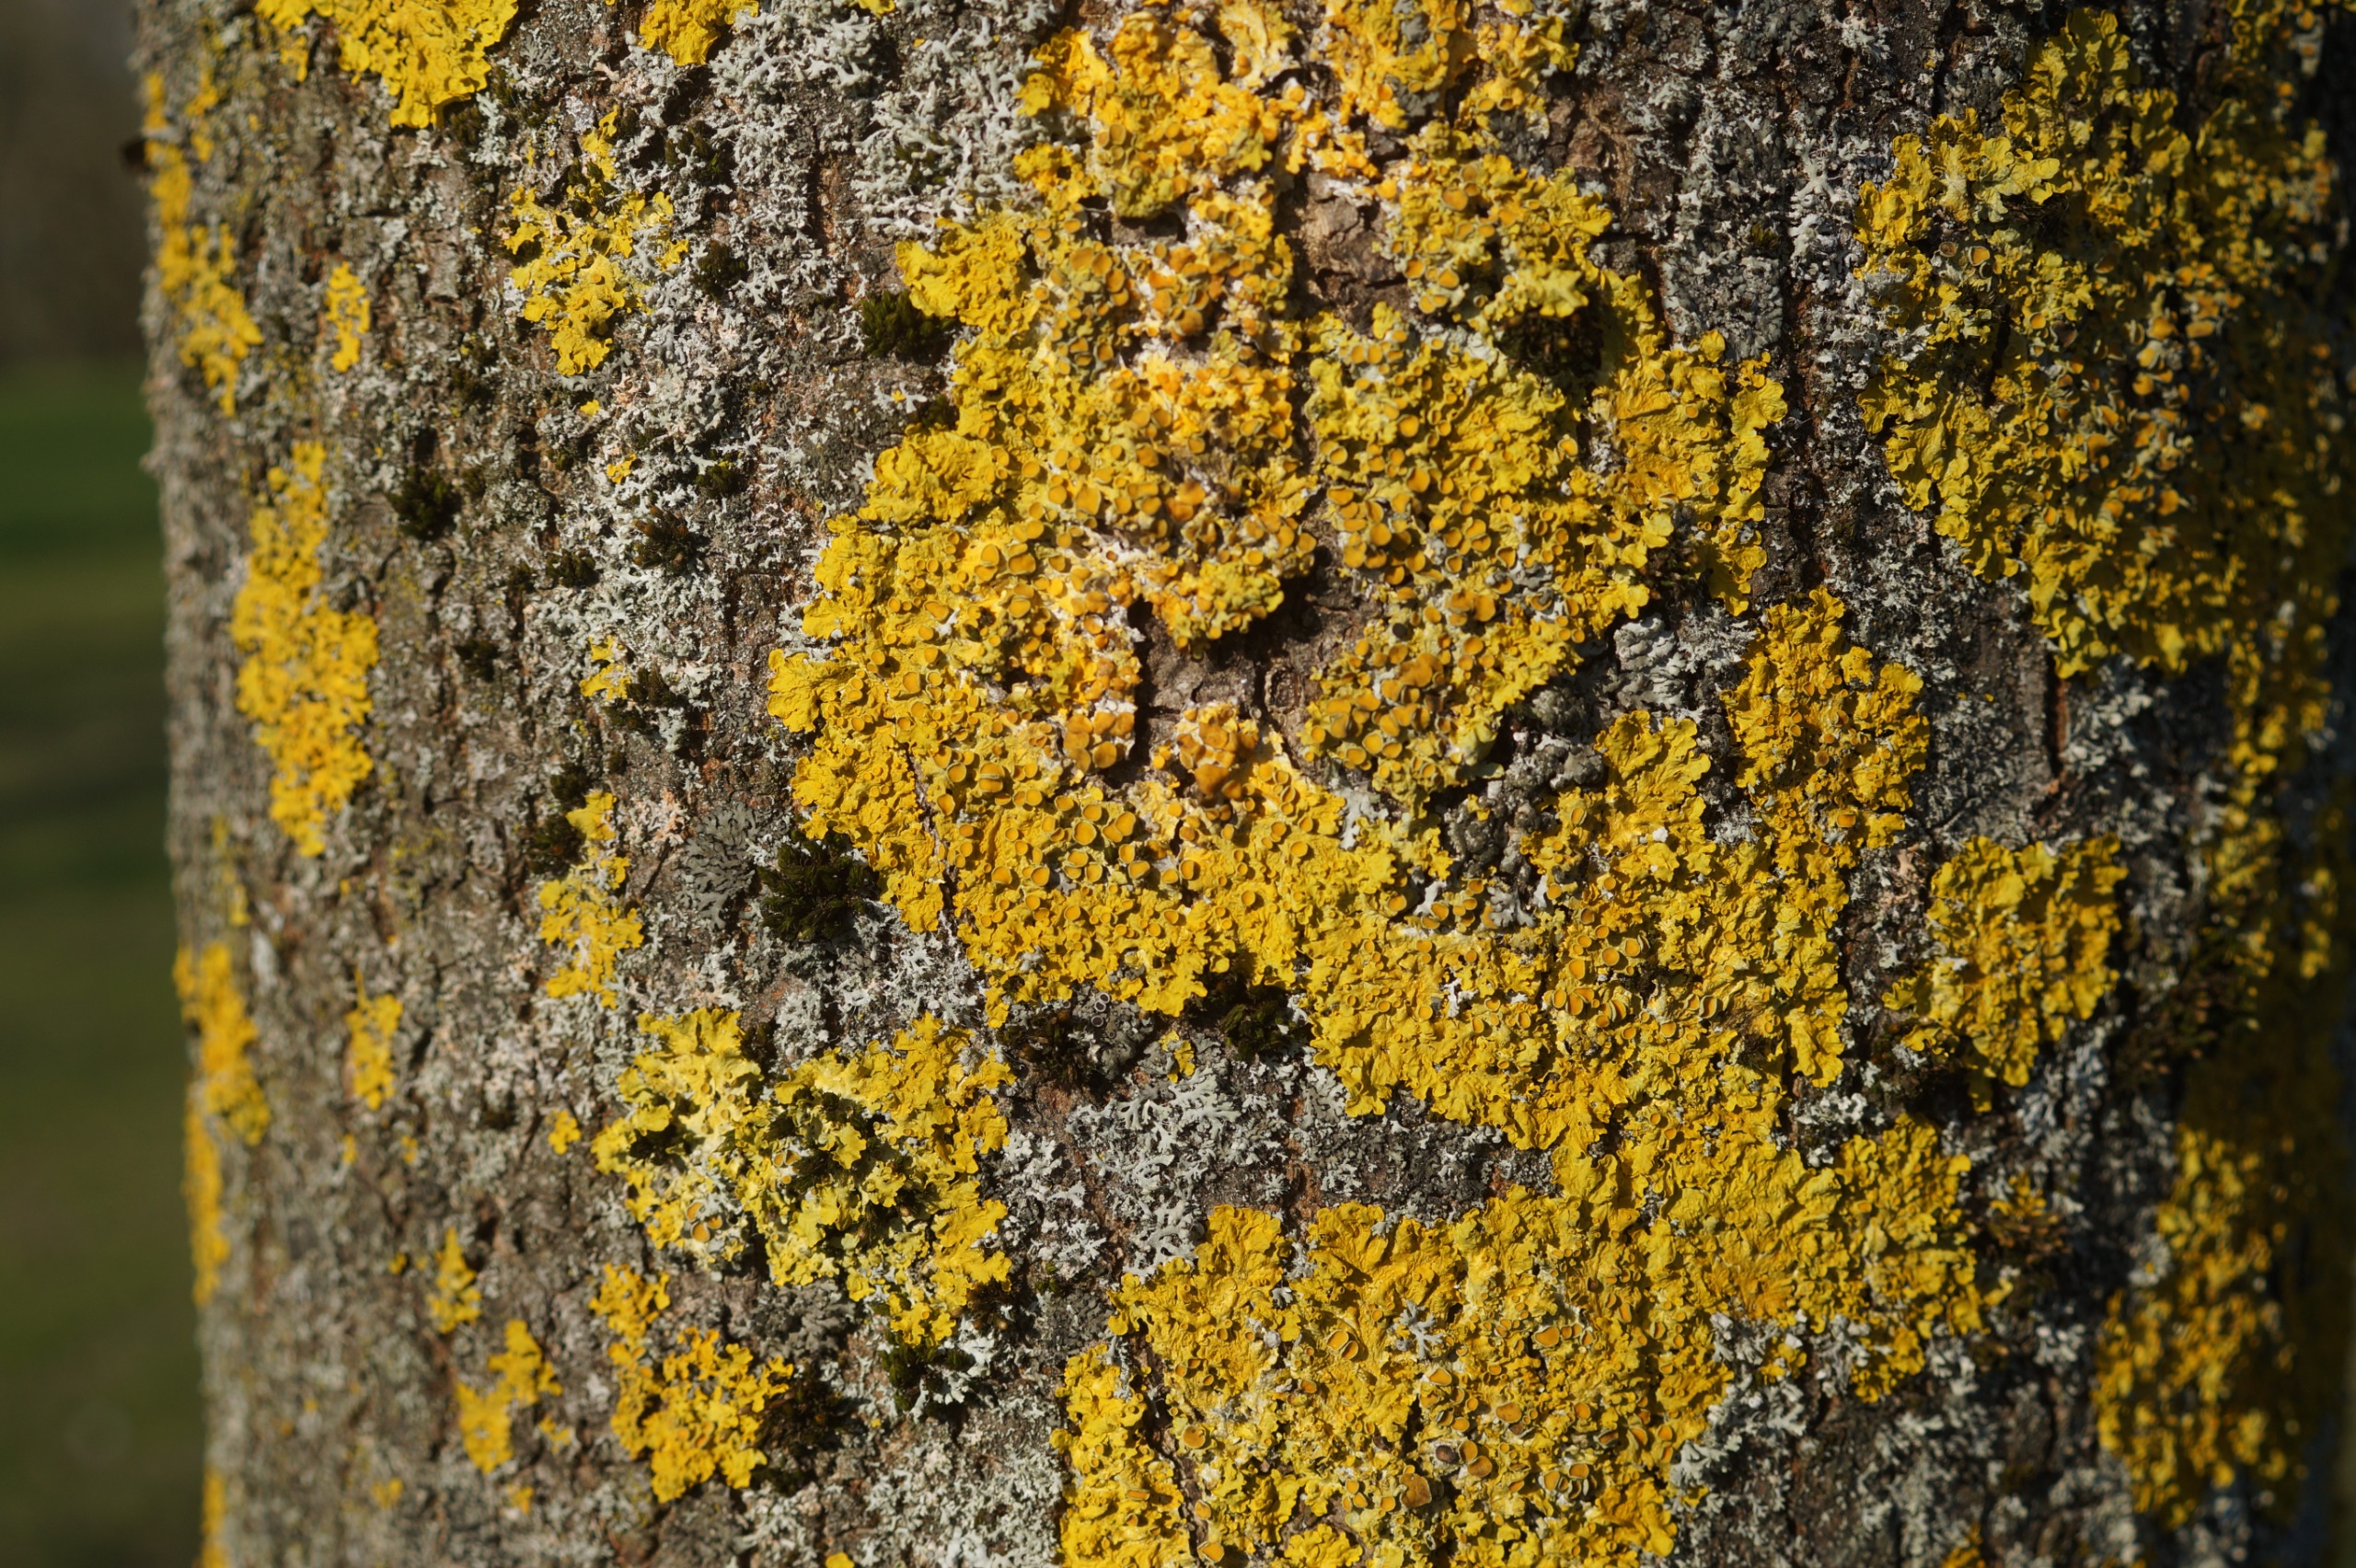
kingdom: Fungi
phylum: Ascomycota
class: Lecanoromycetes
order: Teloschistales
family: Teloschistaceae
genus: Xanthoria
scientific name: Xanthoria parietina
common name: Almindelig væggelav
